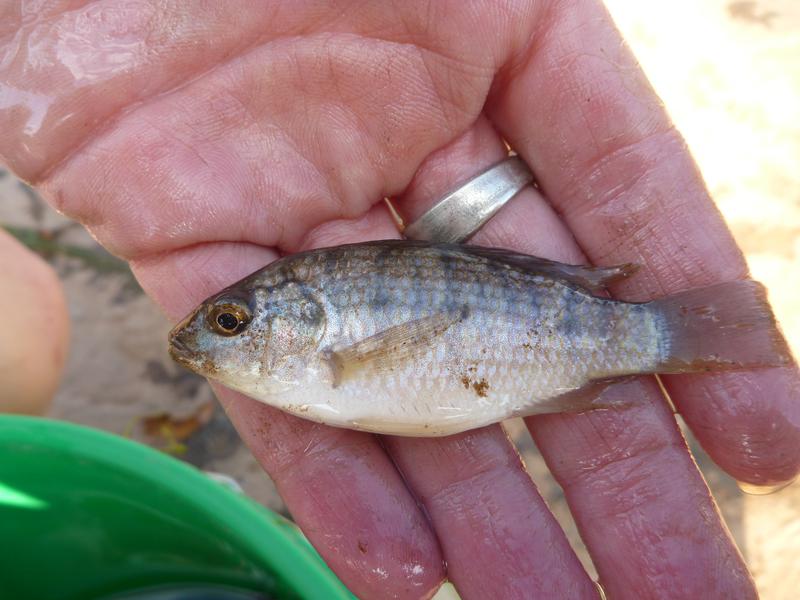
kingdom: Animalia
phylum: Chordata
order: Perciformes
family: Cichlidae
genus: Oreochromis
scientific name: Oreochromis shiranus
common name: Chilwa tilapia
